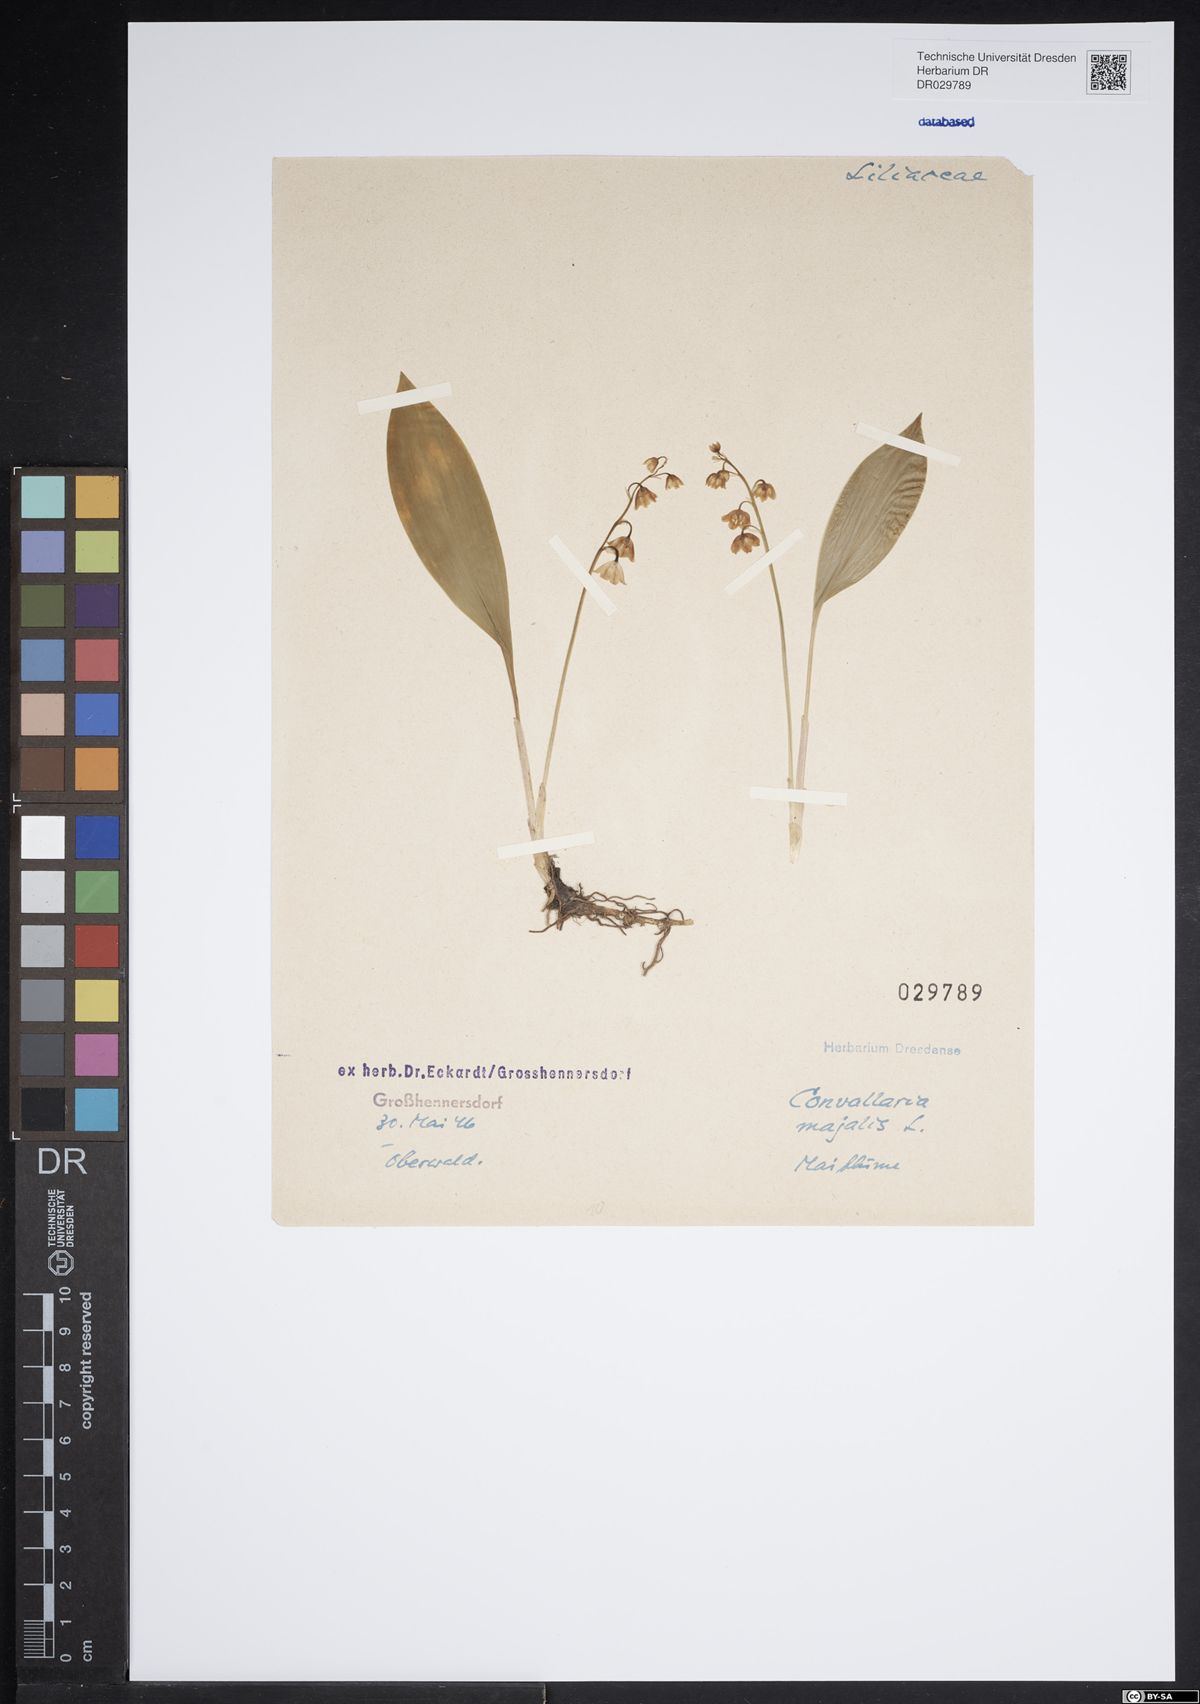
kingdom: Plantae
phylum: Tracheophyta
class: Liliopsida
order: Asparagales
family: Asparagaceae
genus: Convallaria
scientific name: Convallaria majalis
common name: Lily-of-the-valley
